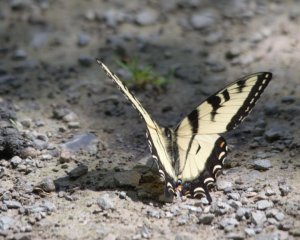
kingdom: Animalia
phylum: Arthropoda
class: Insecta
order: Lepidoptera
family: Papilionidae
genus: Pterourus
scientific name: Pterourus glaucus
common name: Eastern Tiger Swallowtail
